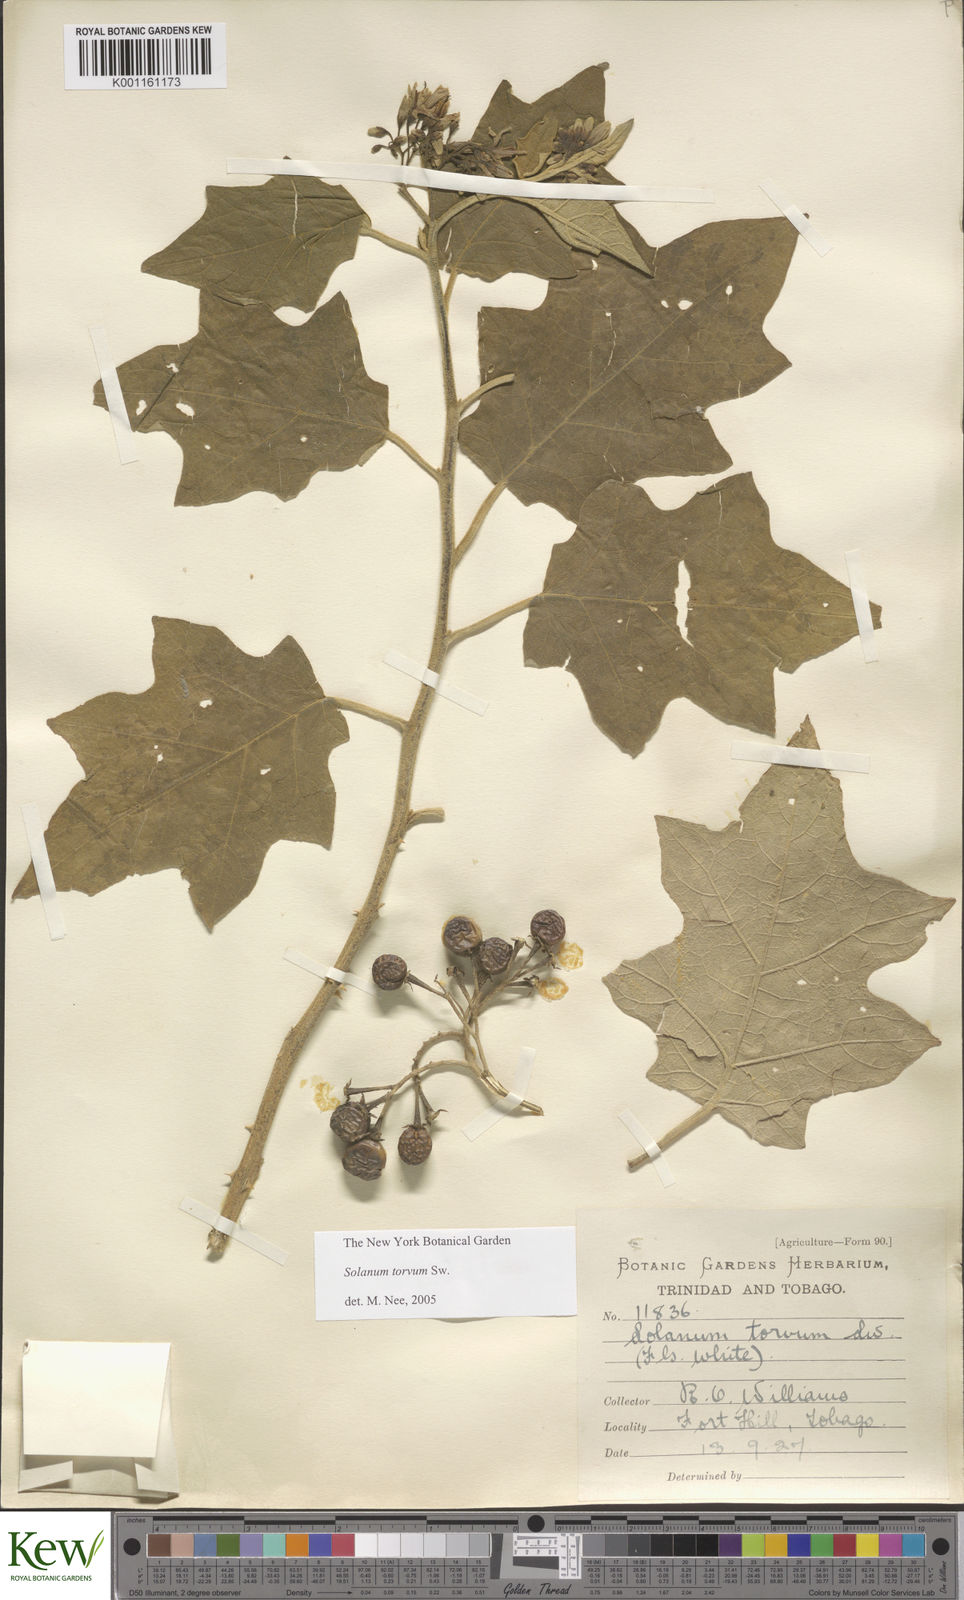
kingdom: Plantae
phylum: Tracheophyta
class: Magnoliopsida
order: Solanales
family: Solanaceae
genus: Solanum
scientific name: Solanum torvum
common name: Turkey berry
